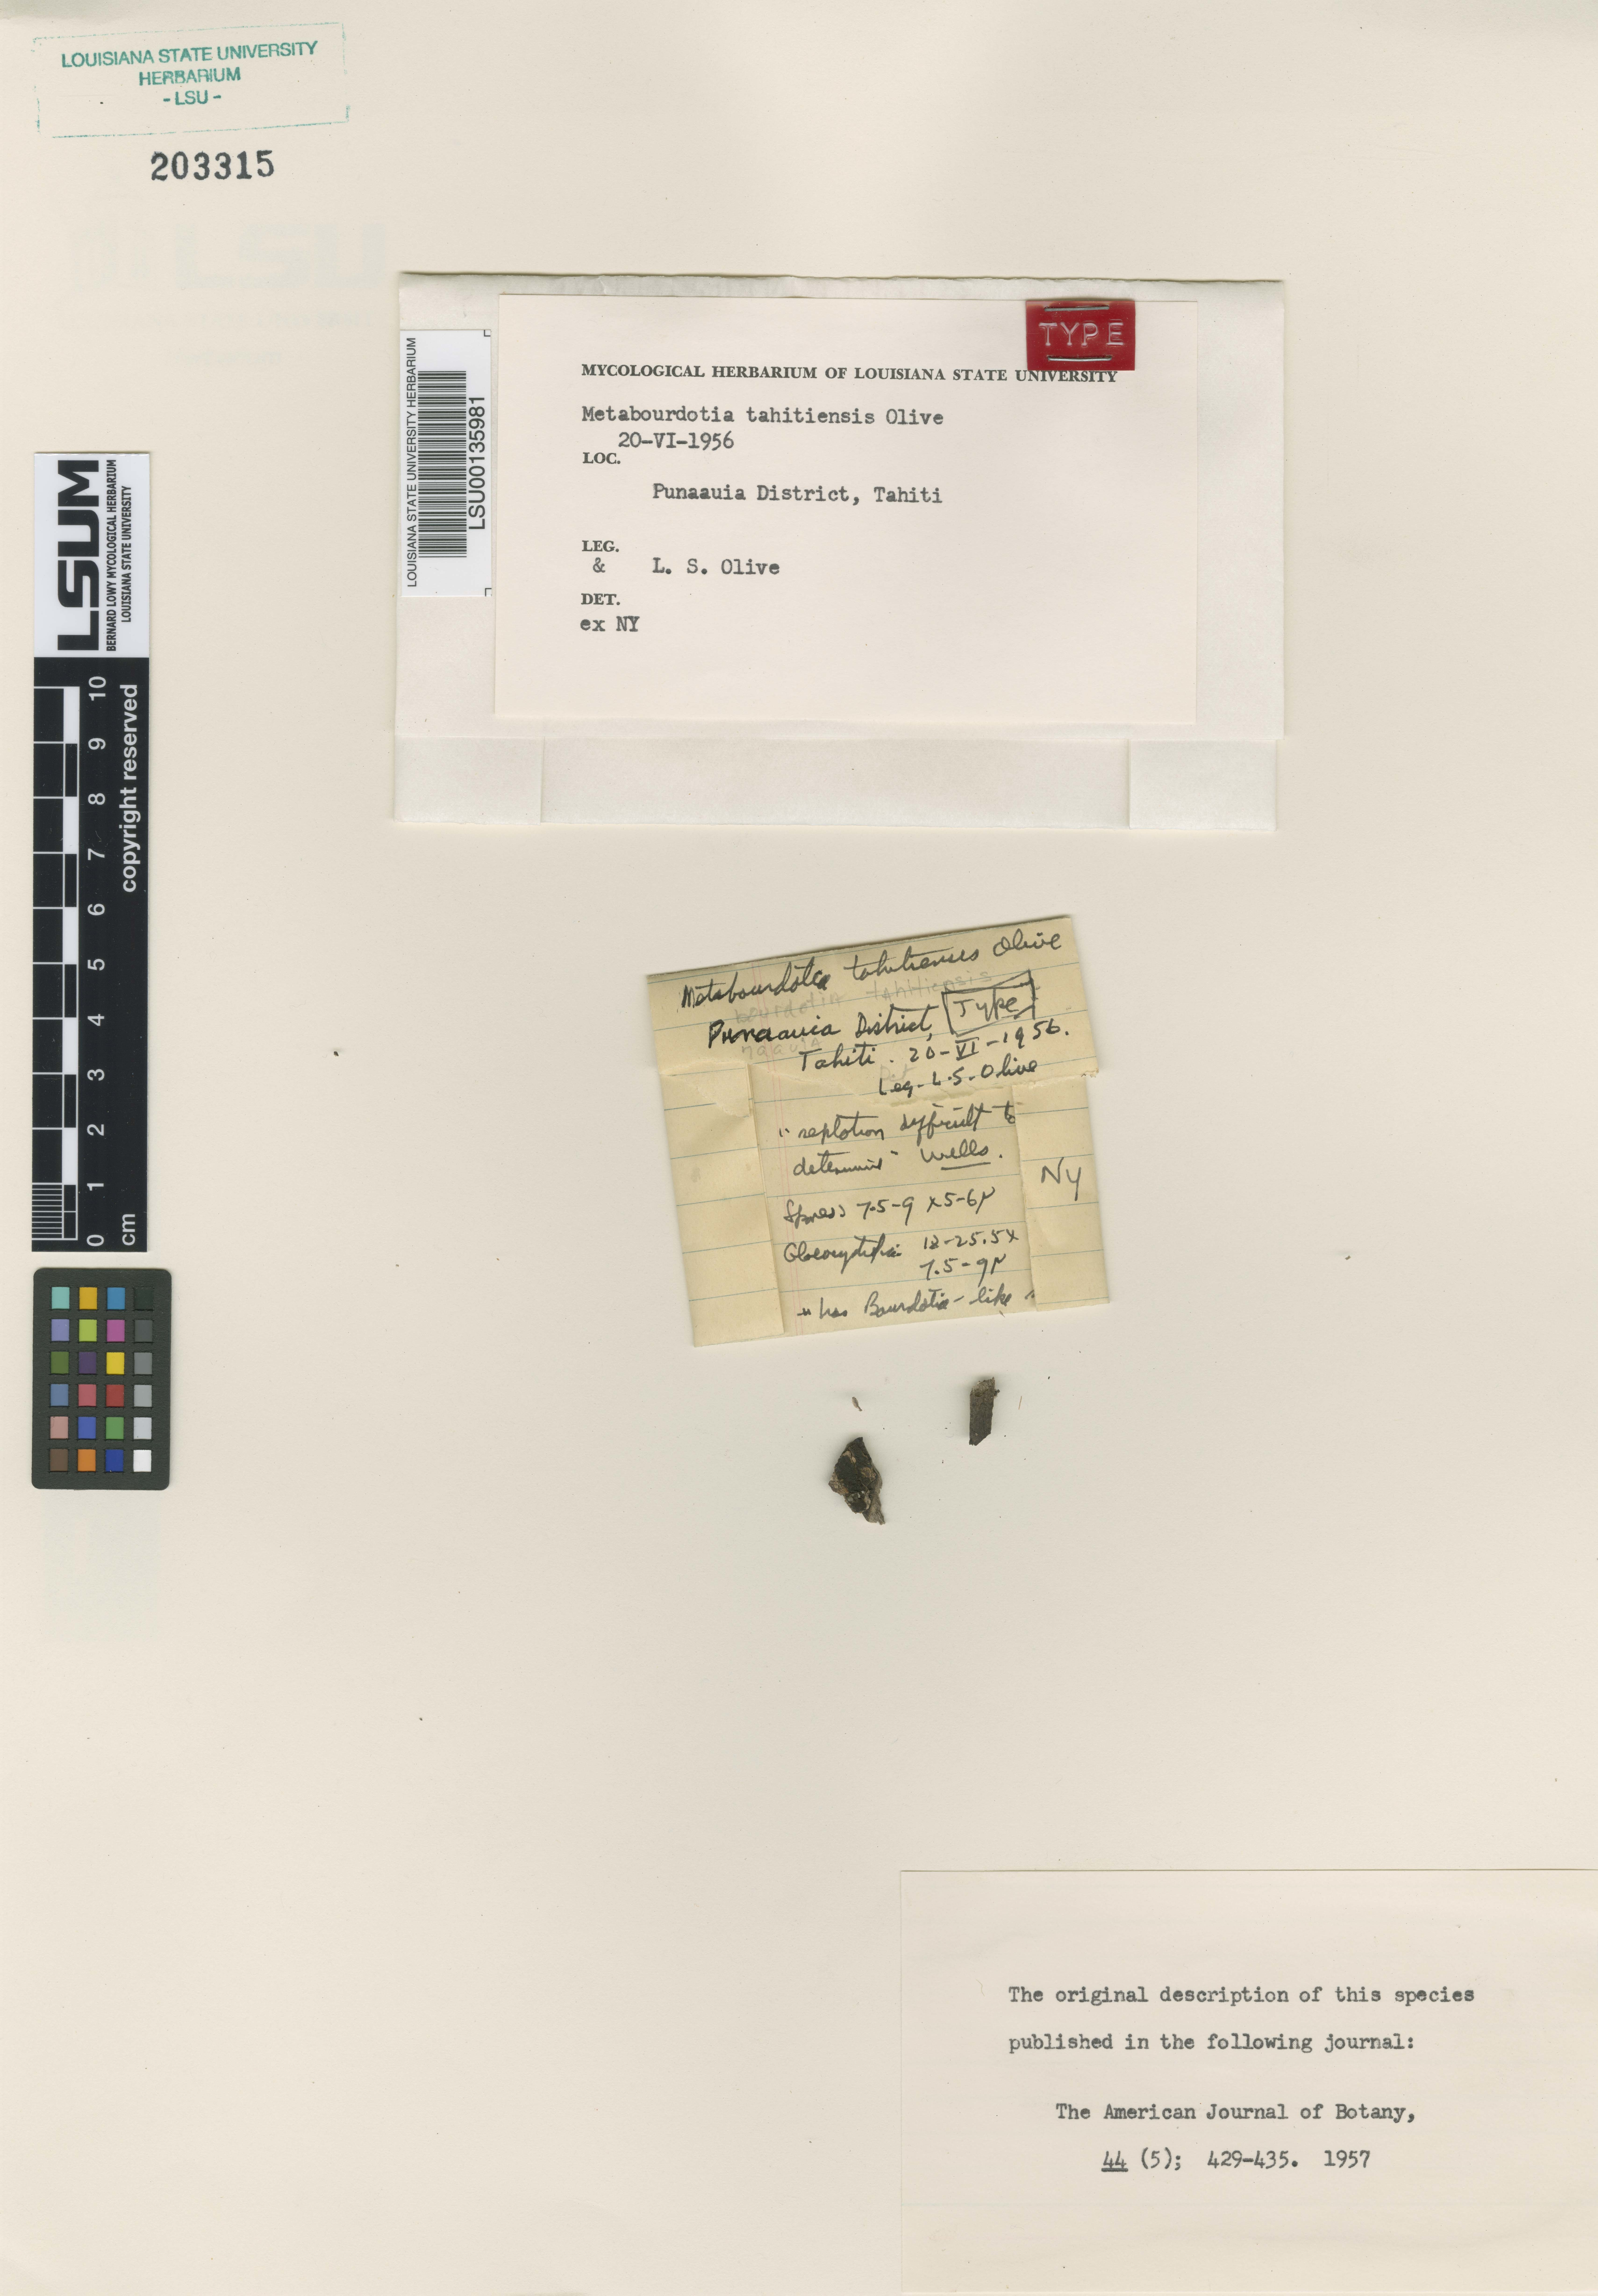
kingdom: Fungi
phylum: Basidiomycota
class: Agaricomycetes
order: Auriculariales
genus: Metabourdotia
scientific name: Metabourdotia tahitiensis
